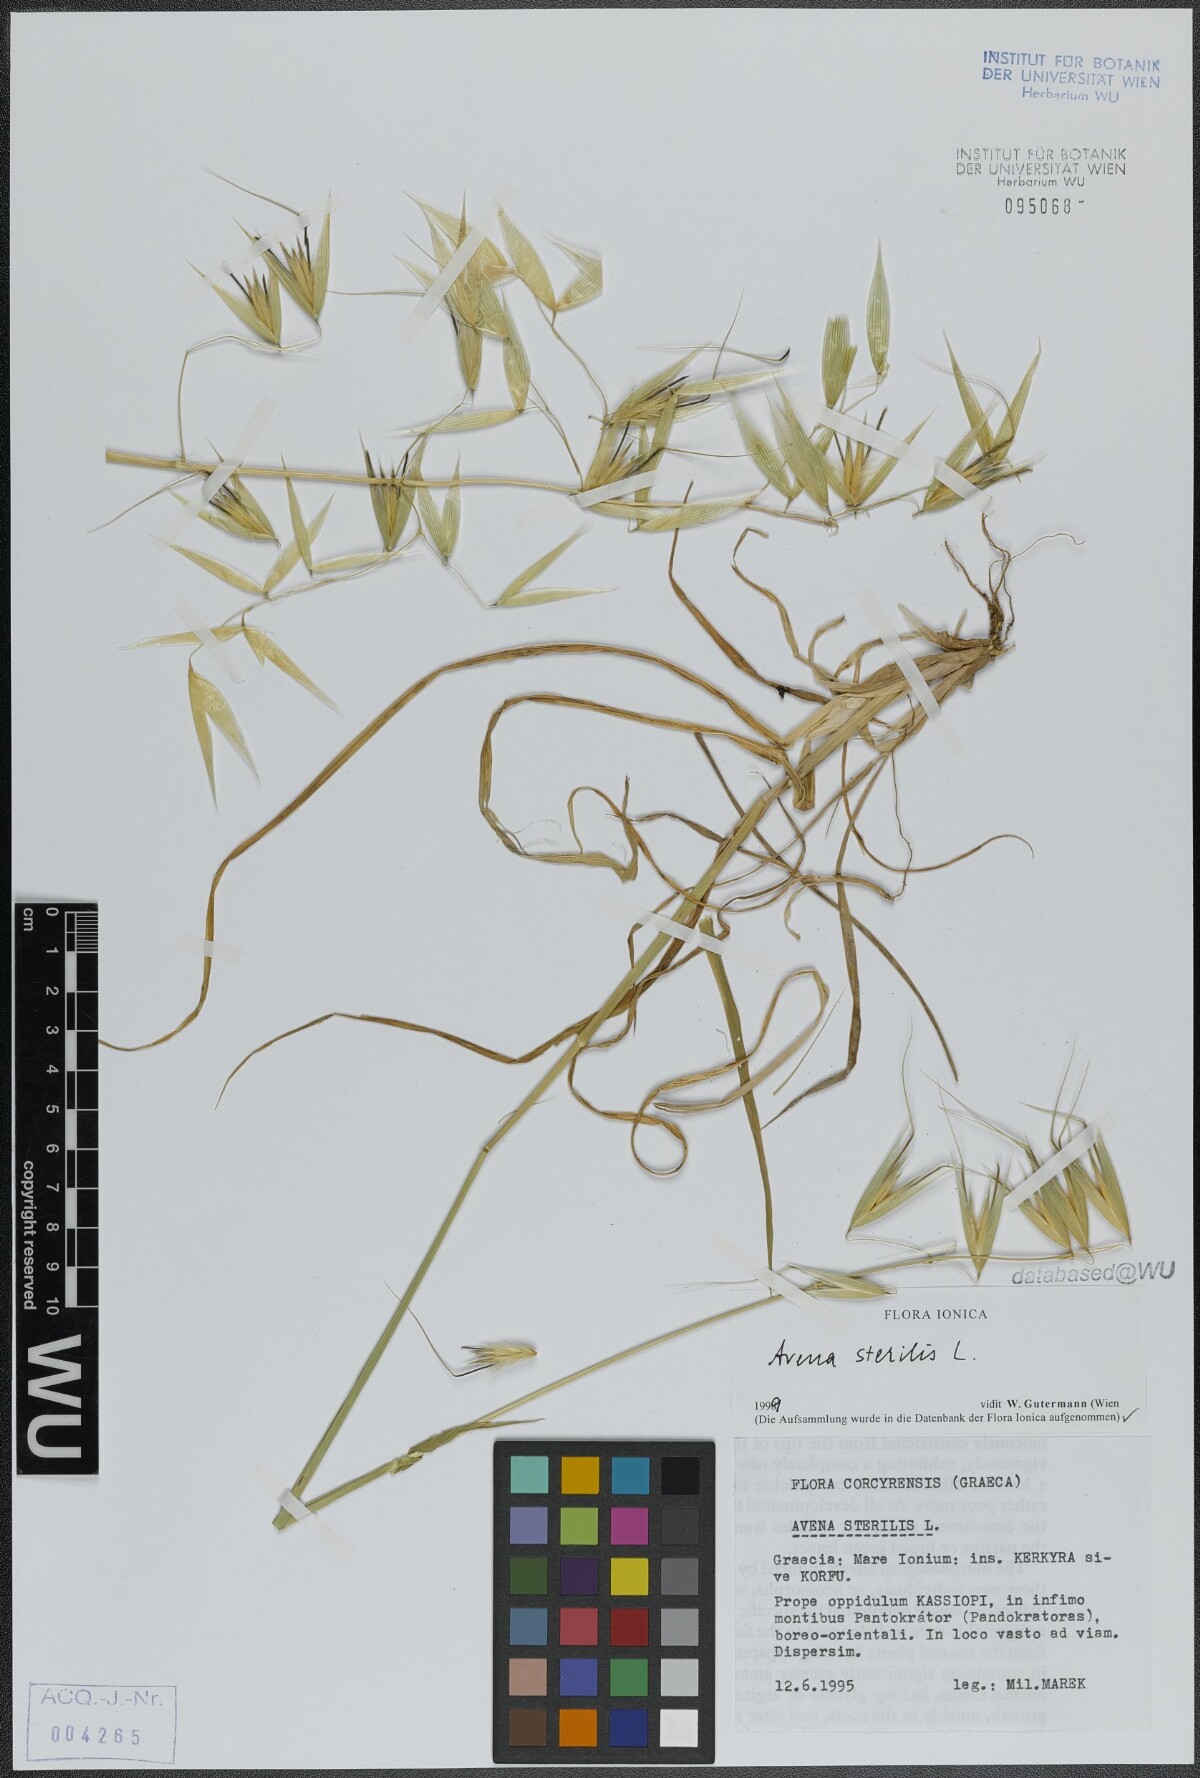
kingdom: Plantae
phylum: Tracheophyta
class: Liliopsida
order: Poales
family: Poaceae
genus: Avena
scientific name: Avena sterilis
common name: Animated oat
